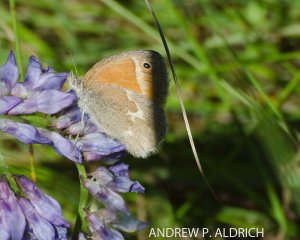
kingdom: Animalia
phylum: Arthropoda
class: Insecta
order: Lepidoptera
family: Nymphalidae
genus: Coenonympha
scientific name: Coenonympha tullia
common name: Large Heath
